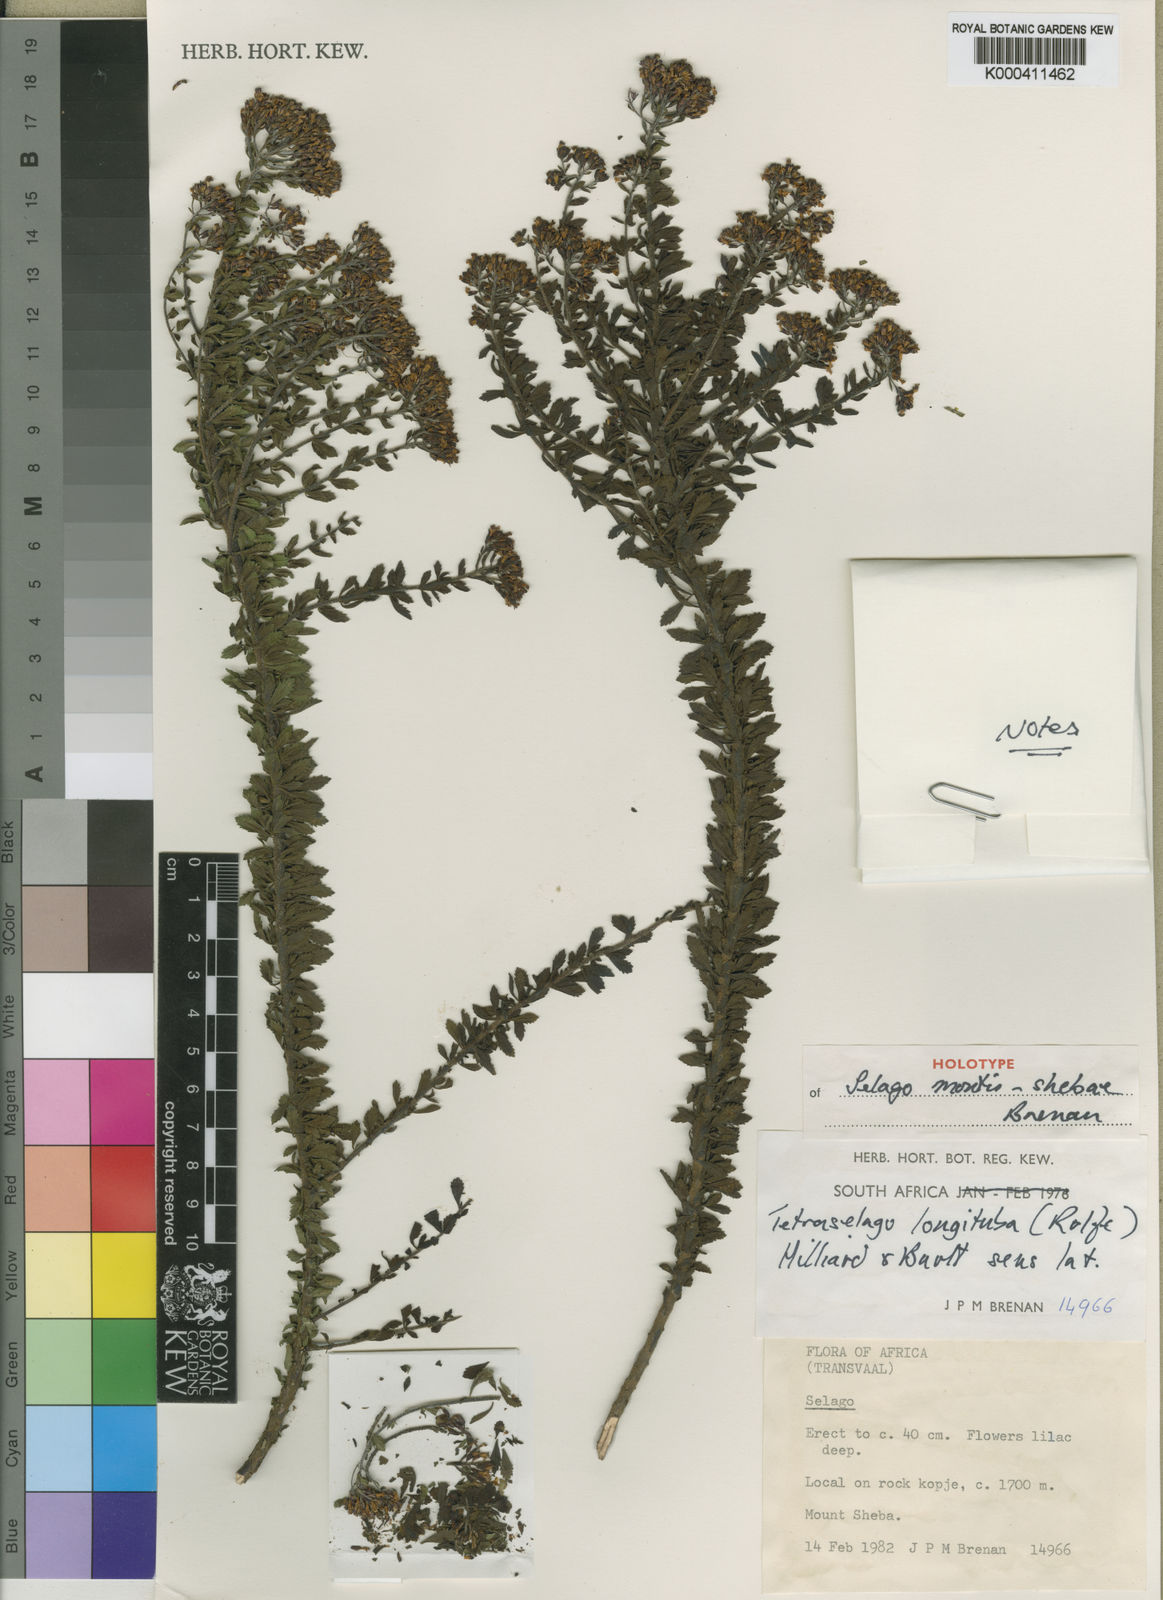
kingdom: Plantae
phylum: Tracheophyta
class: Magnoliopsida
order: Lamiales
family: Scrophulariaceae
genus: Tetraselago
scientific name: Tetraselago longituba
